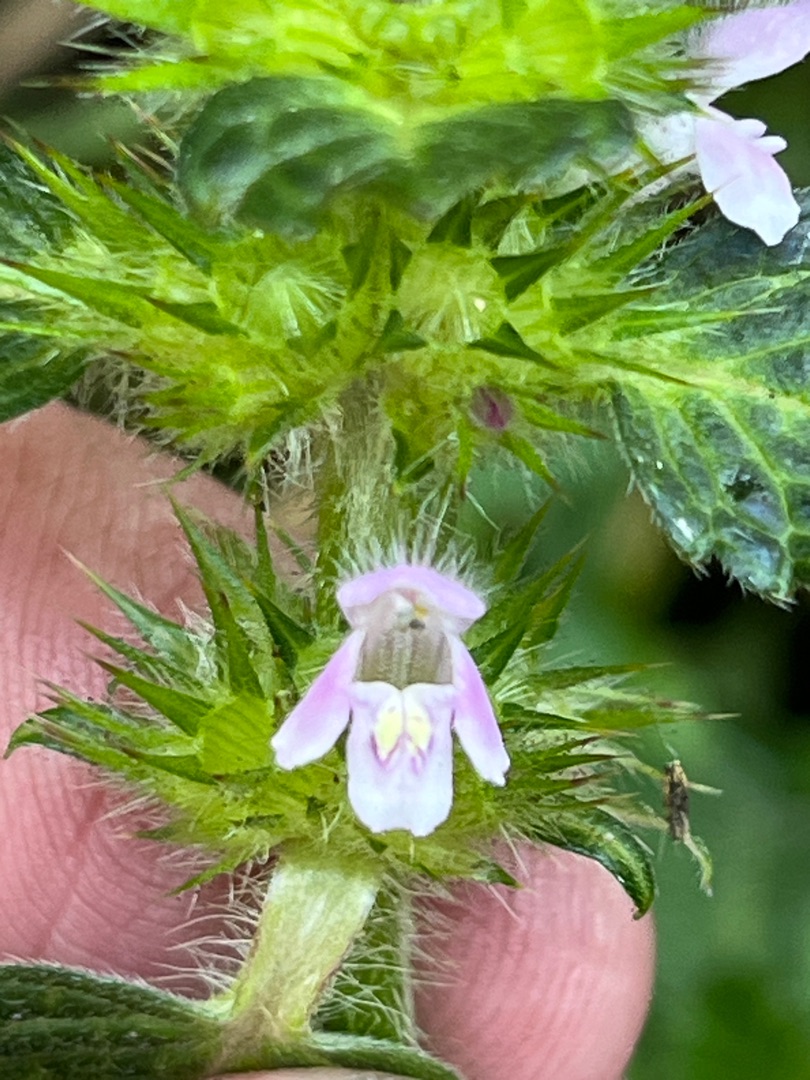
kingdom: Plantae
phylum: Tracheophyta
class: Magnoliopsida
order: Lamiales
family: Lamiaceae
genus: Galeopsis
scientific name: Galeopsis tetrahit
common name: Almindelig hanekro
